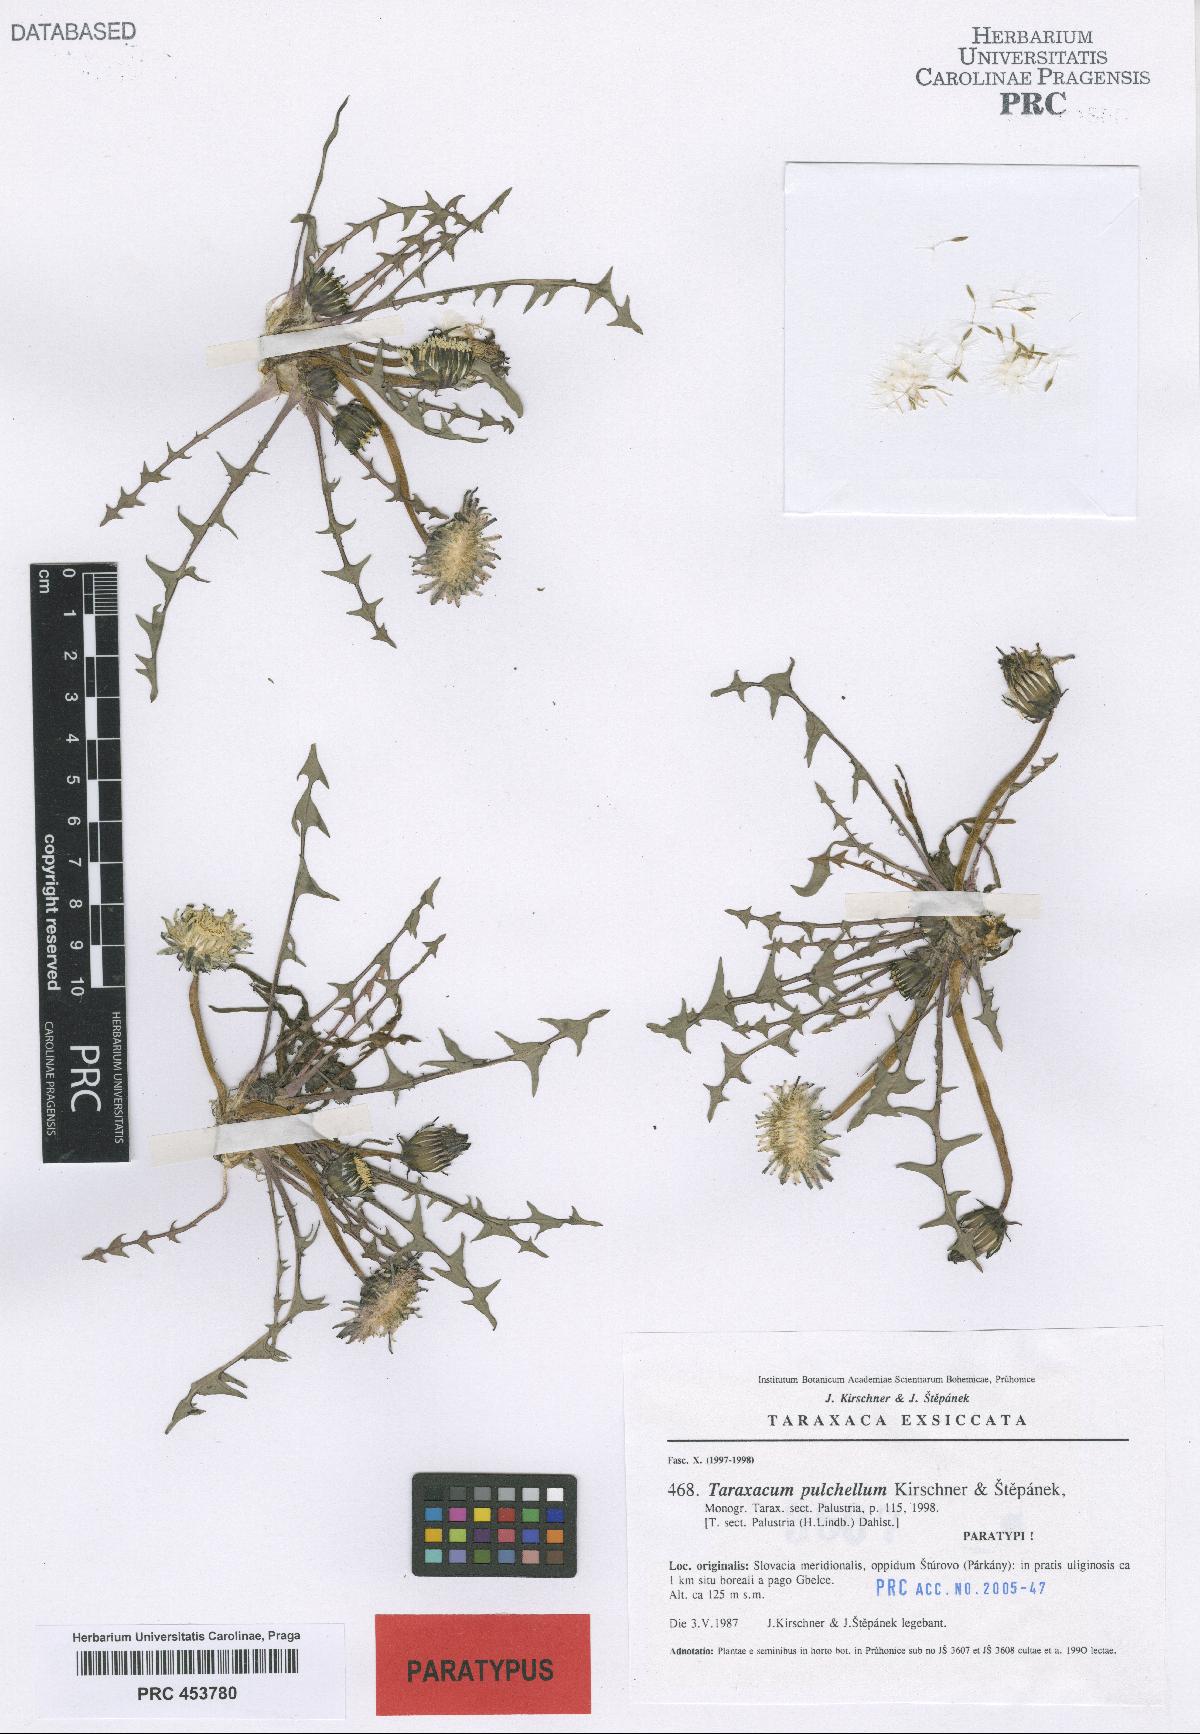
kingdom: Plantae
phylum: Tracheophyta
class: Magnoliopsida
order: Asterales
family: Asteraceae
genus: Taraxacum
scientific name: Taraxacum pulchellum
